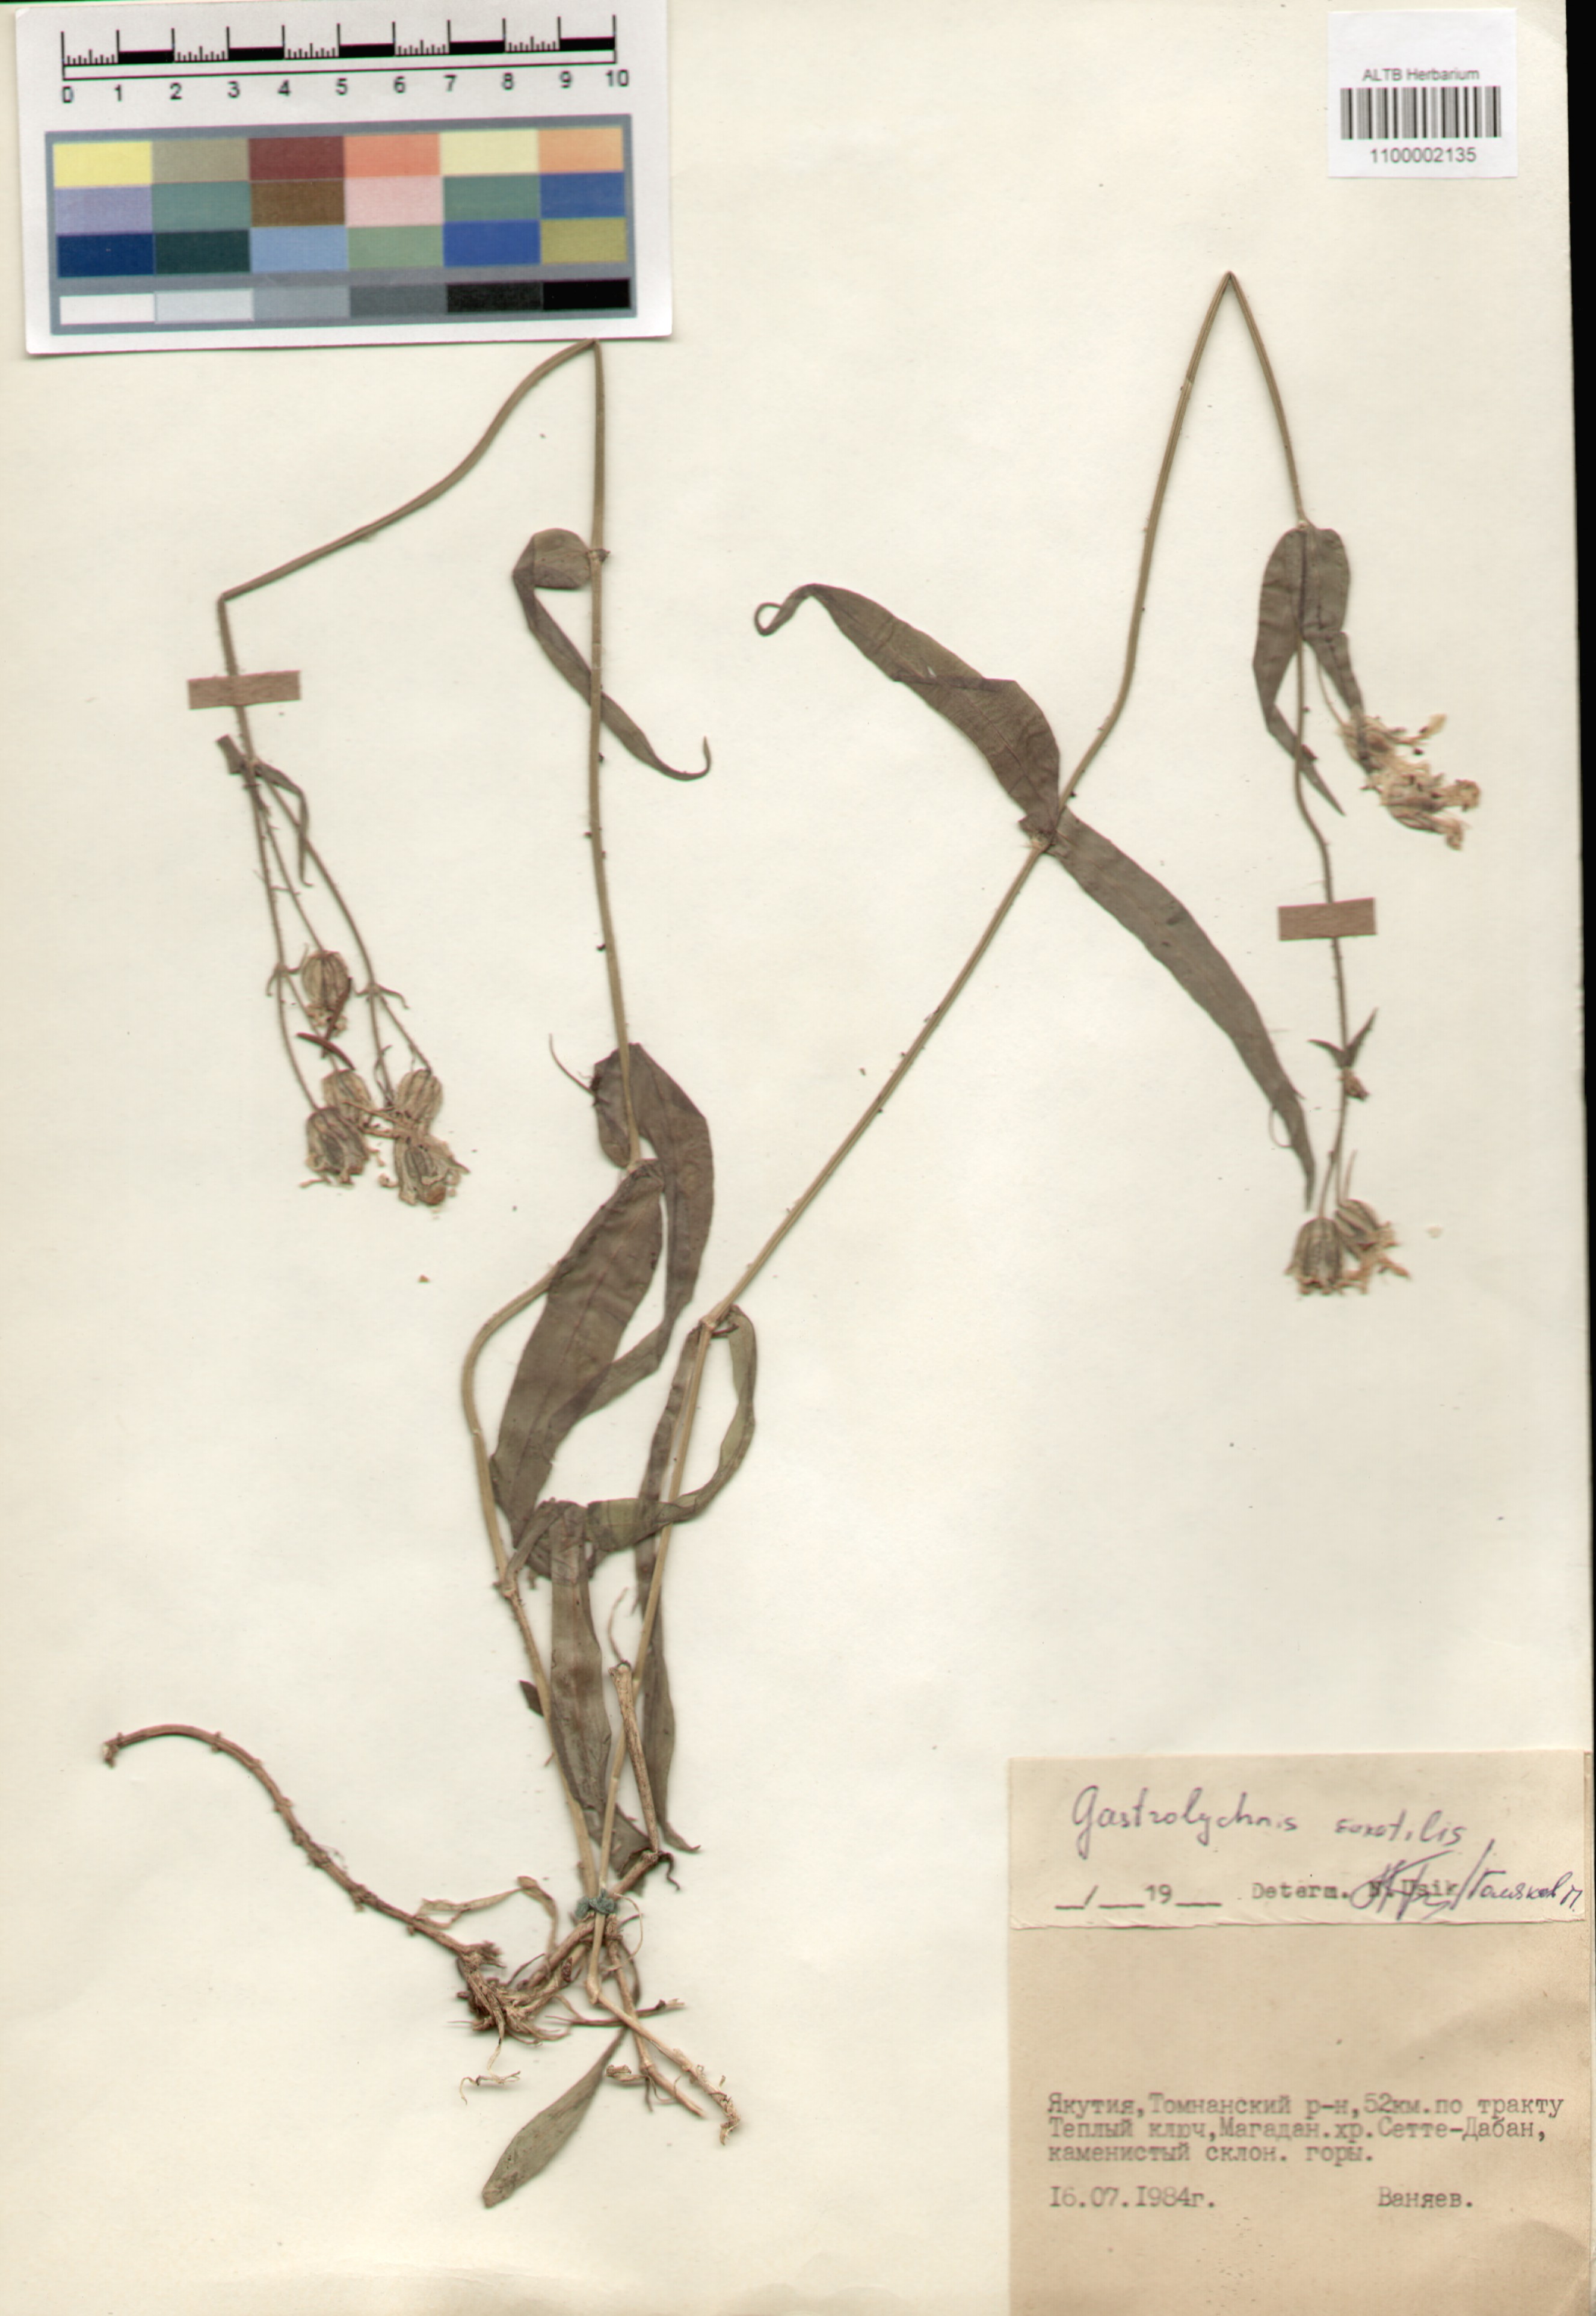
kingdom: Plantae
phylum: Tracheophyta
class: Magnoliopsida
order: Caryophyllales
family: Caryophyllaceae
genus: Silene
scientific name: Silene tolmatchevii
